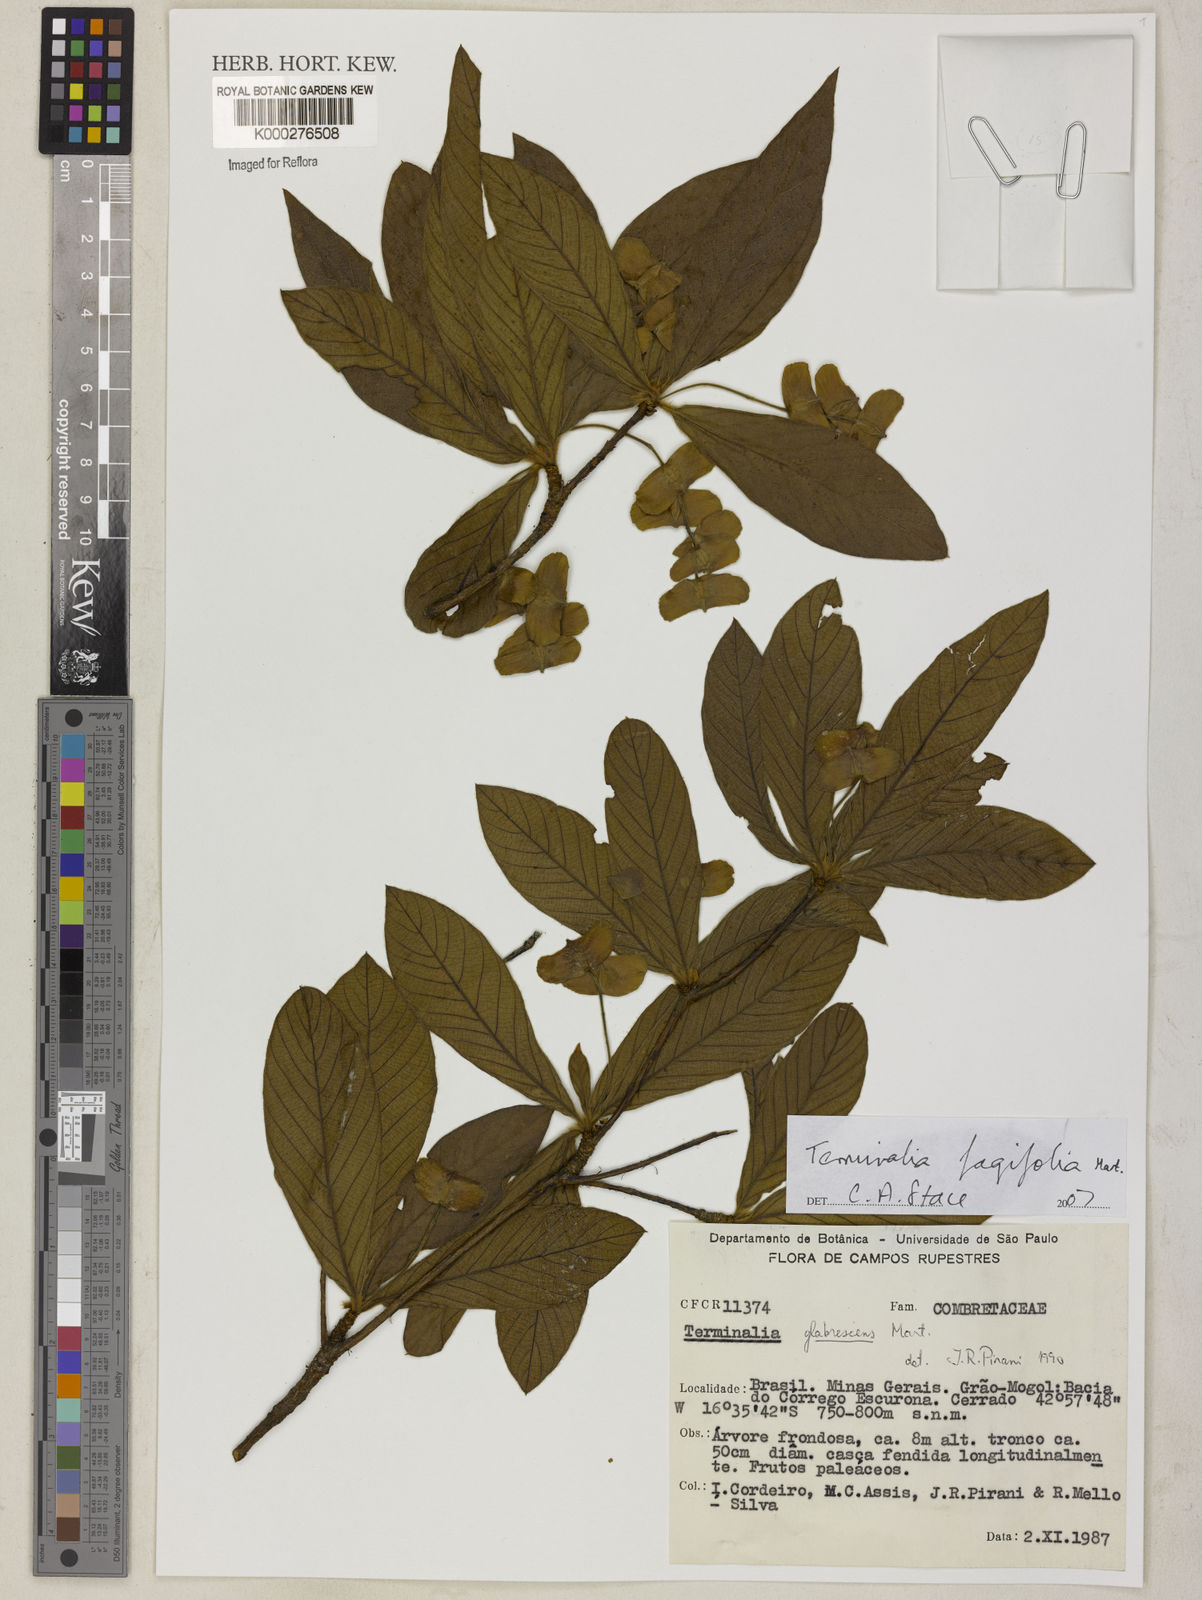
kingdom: Plantae
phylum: Tracheophyta
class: Magnoliopsida
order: Myrtales
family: Combretaceae
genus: Terminalia
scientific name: Terminalia fagifolia
